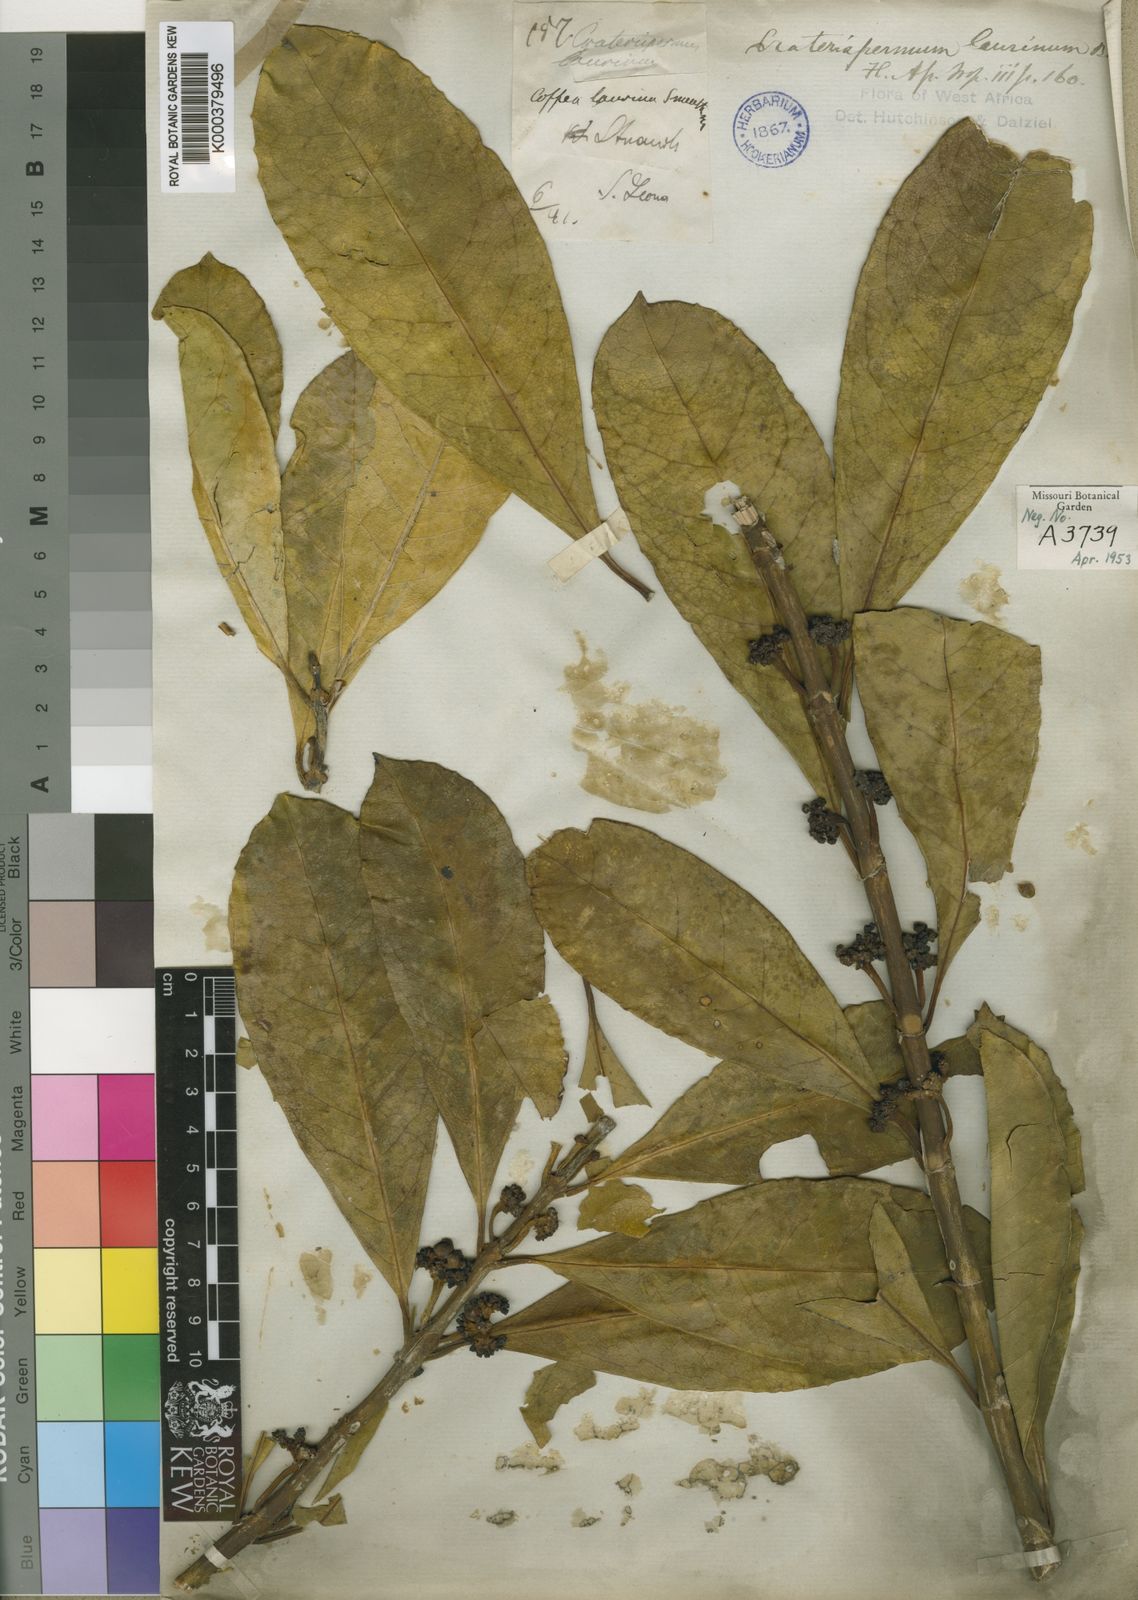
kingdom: Plantae
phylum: Tracheophyta
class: Magnoliopsida
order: Gentianales
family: Rubiaceae
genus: Craterispermum
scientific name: Craterispermum laurinum
